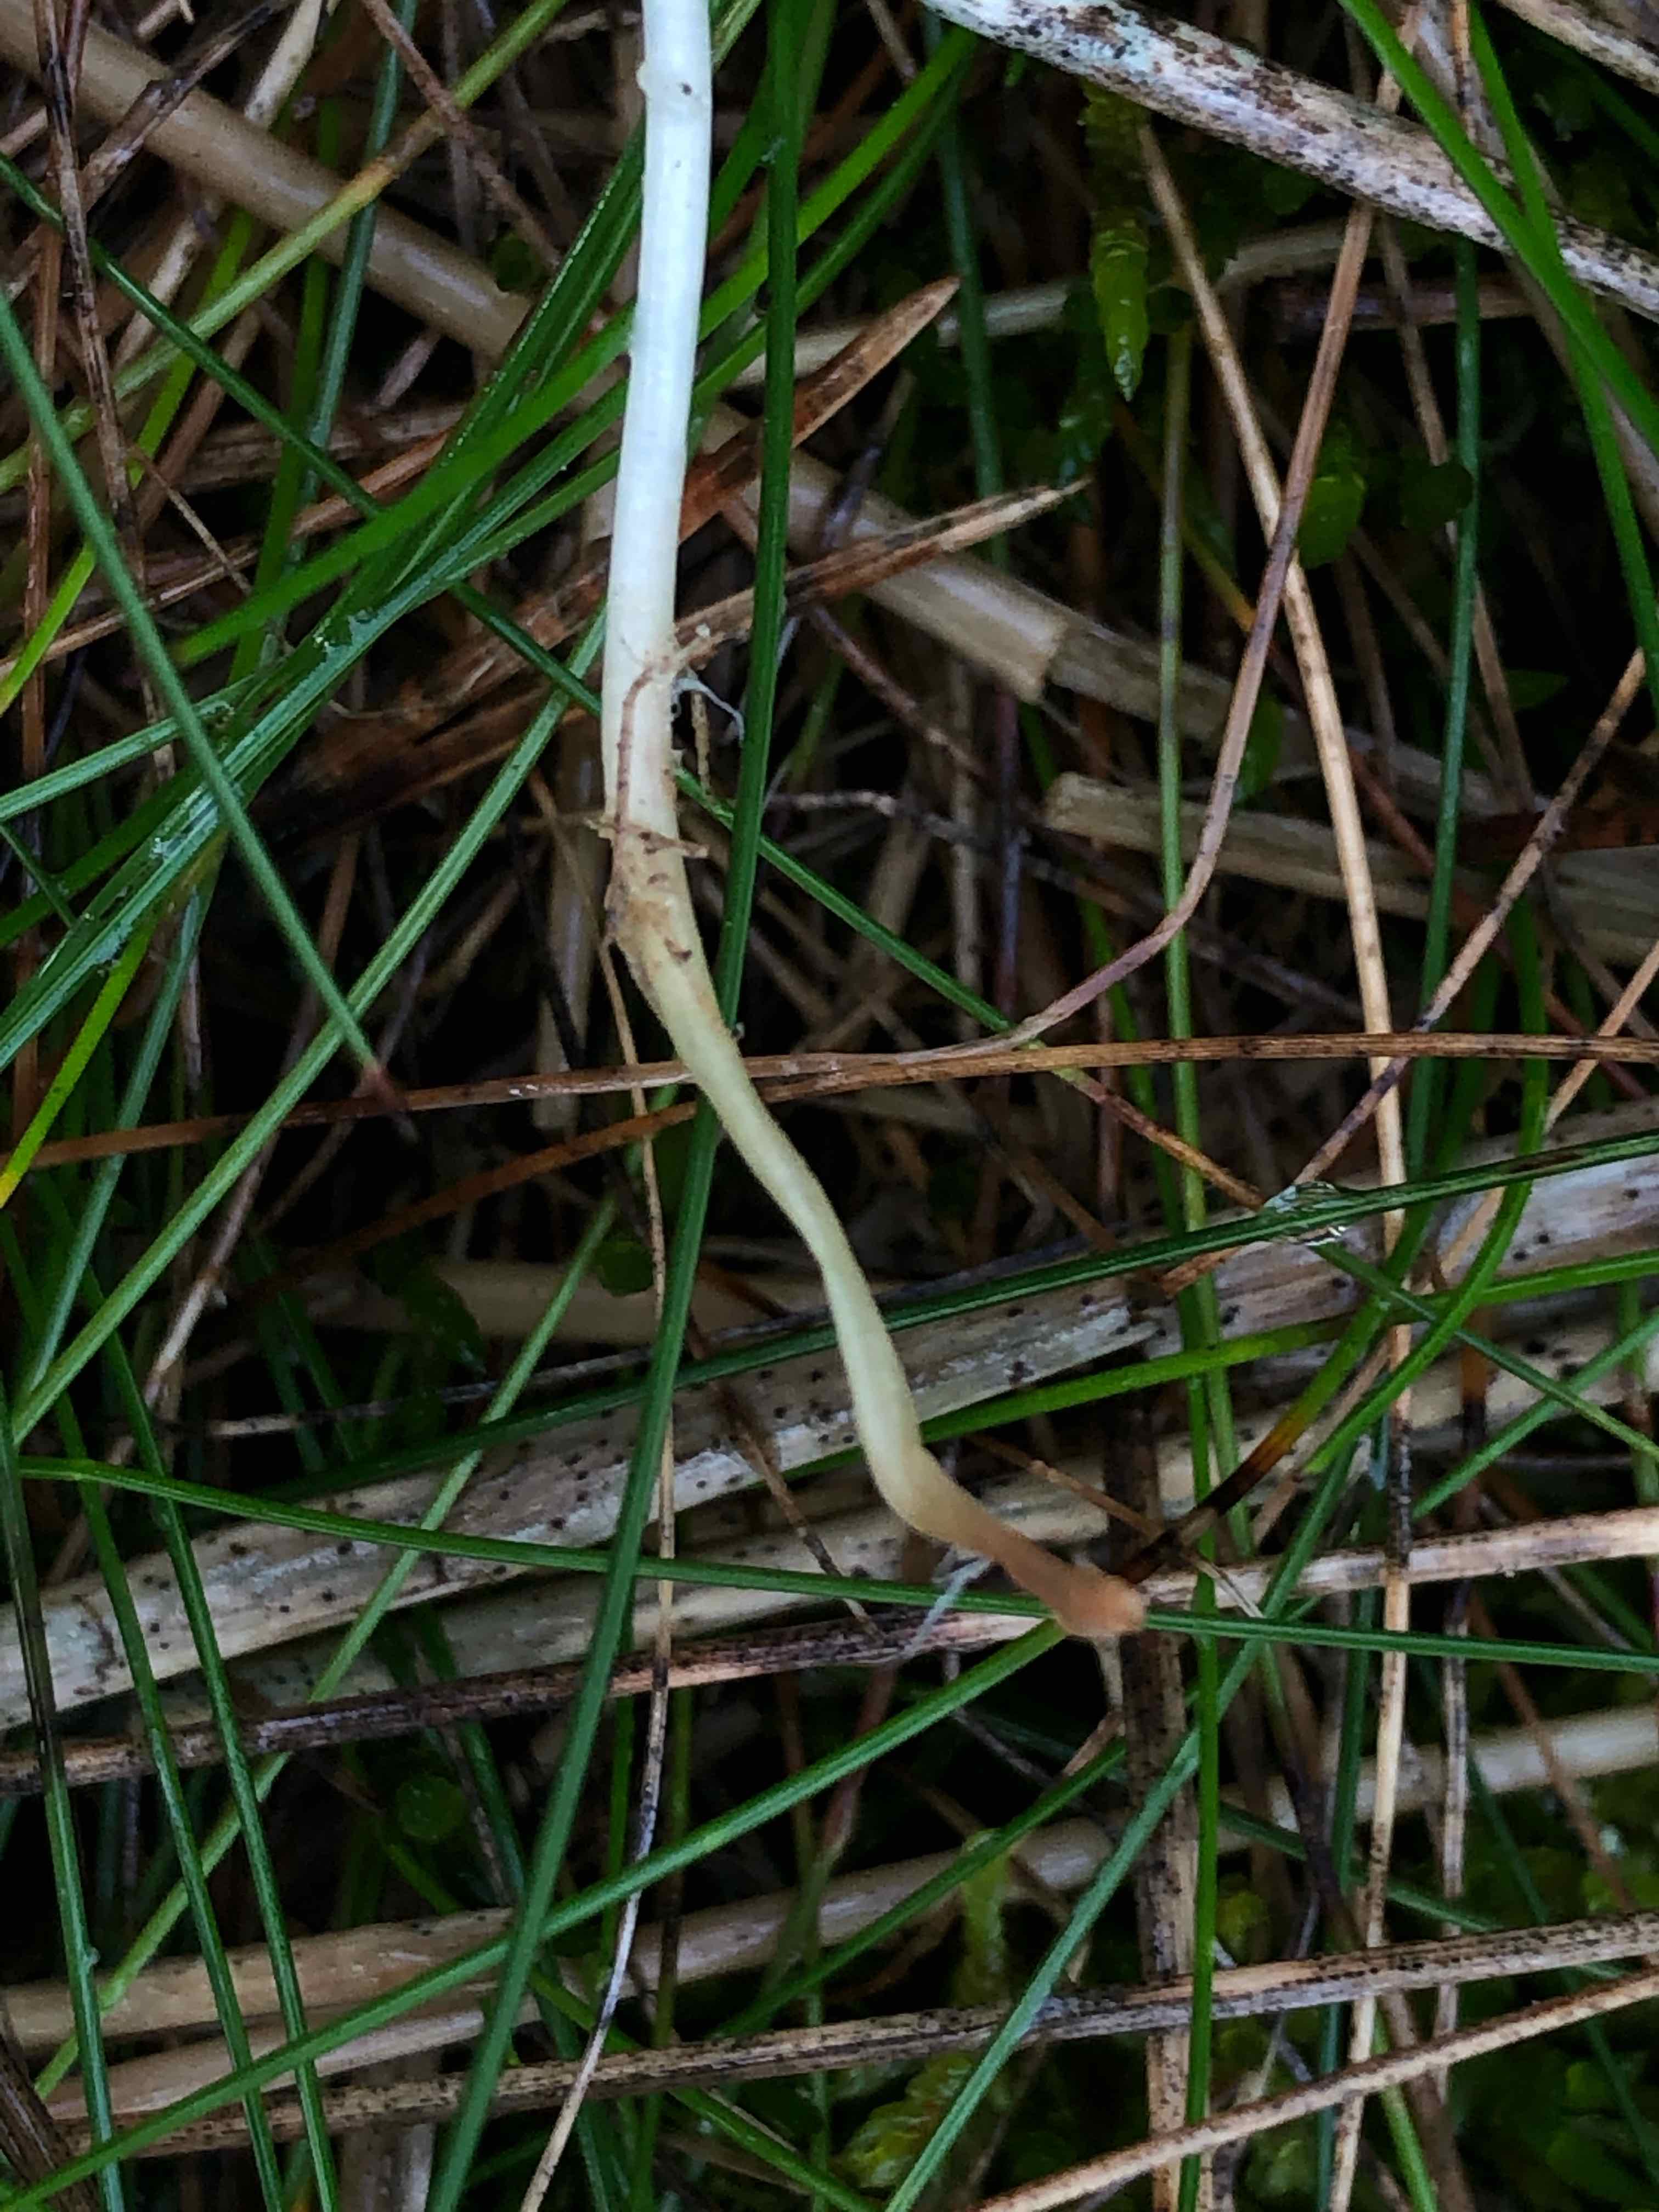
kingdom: Fungi
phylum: Basidiomycota
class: Agaricomycetes
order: Agaricales
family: Mycenaceae
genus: Mycena
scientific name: Mycena epipterygia
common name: gulstokket huesvamp
